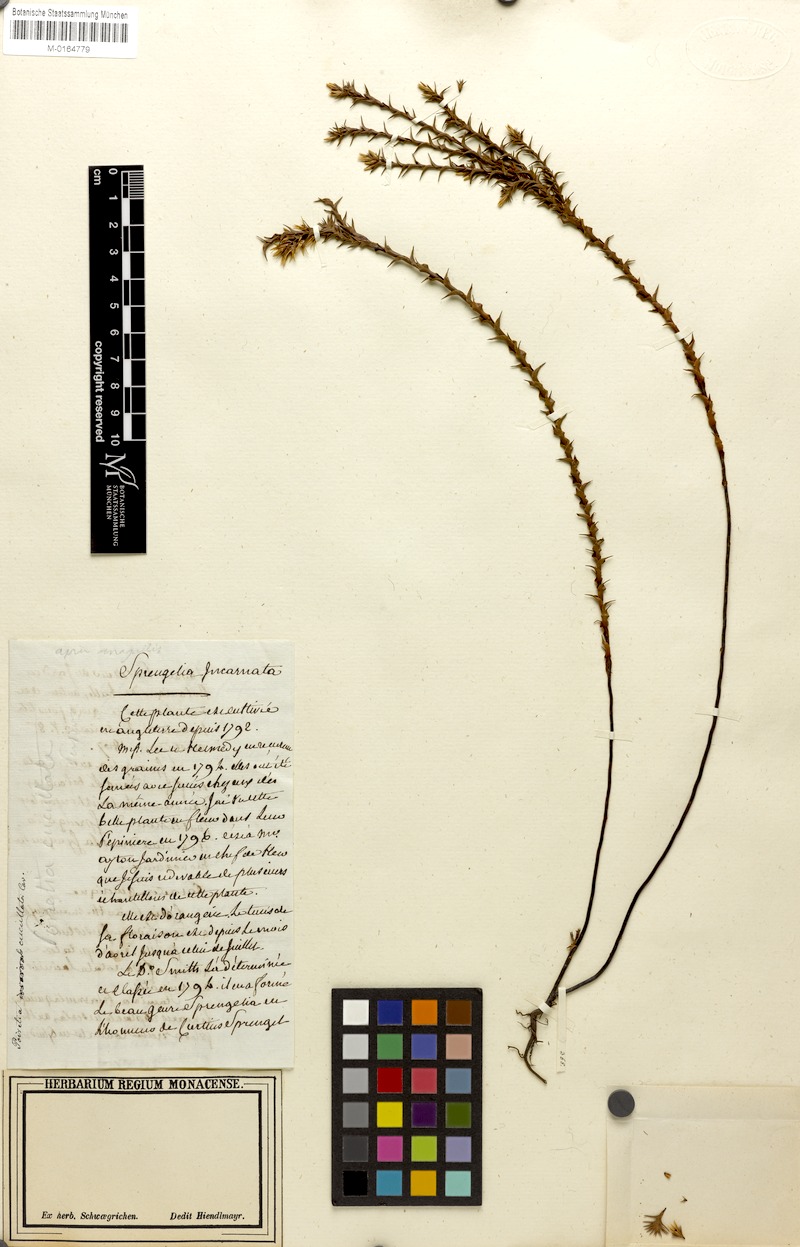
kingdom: Plantae
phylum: Tracheophyta
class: Magnoliopsida
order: Ericales
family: Ericaceae
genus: Sprengelia
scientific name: Sprengelia incarnata
